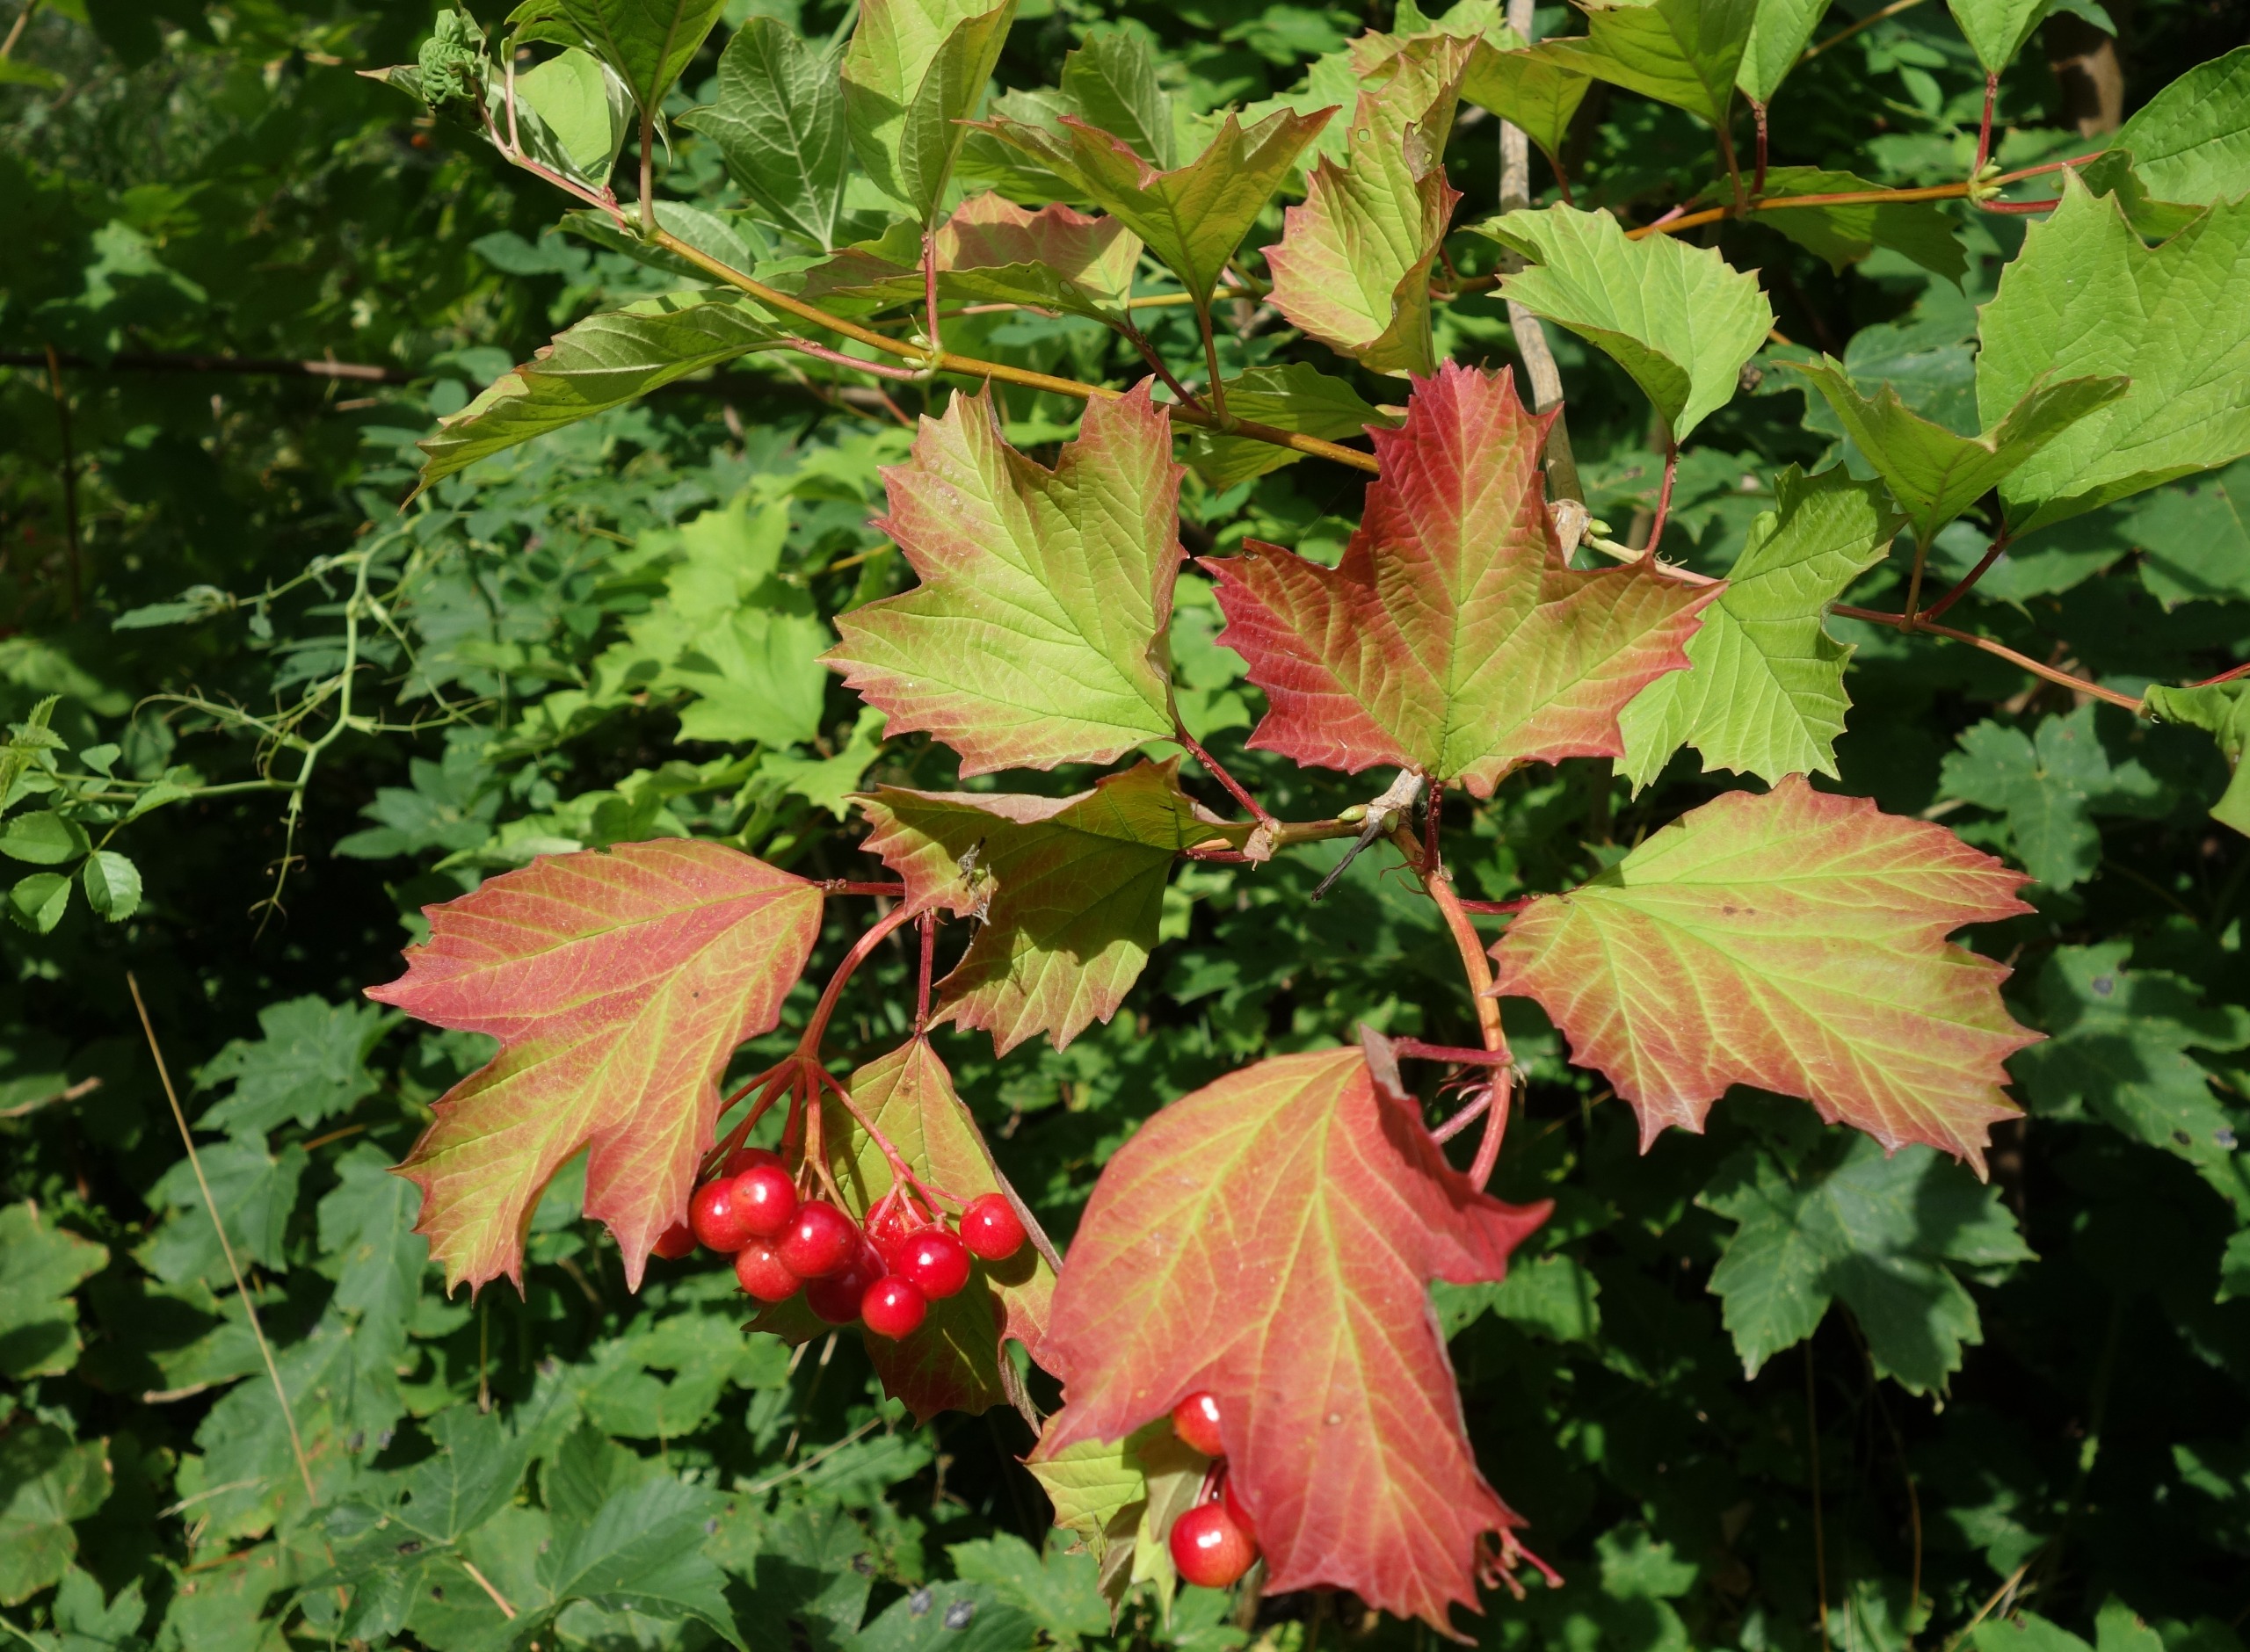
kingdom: Plantae
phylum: Tracheophyta
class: Magnoliopsida
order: Dipsacales
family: Viburnaceae
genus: Viburnum
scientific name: Viburnum opulus
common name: Kvalkved
